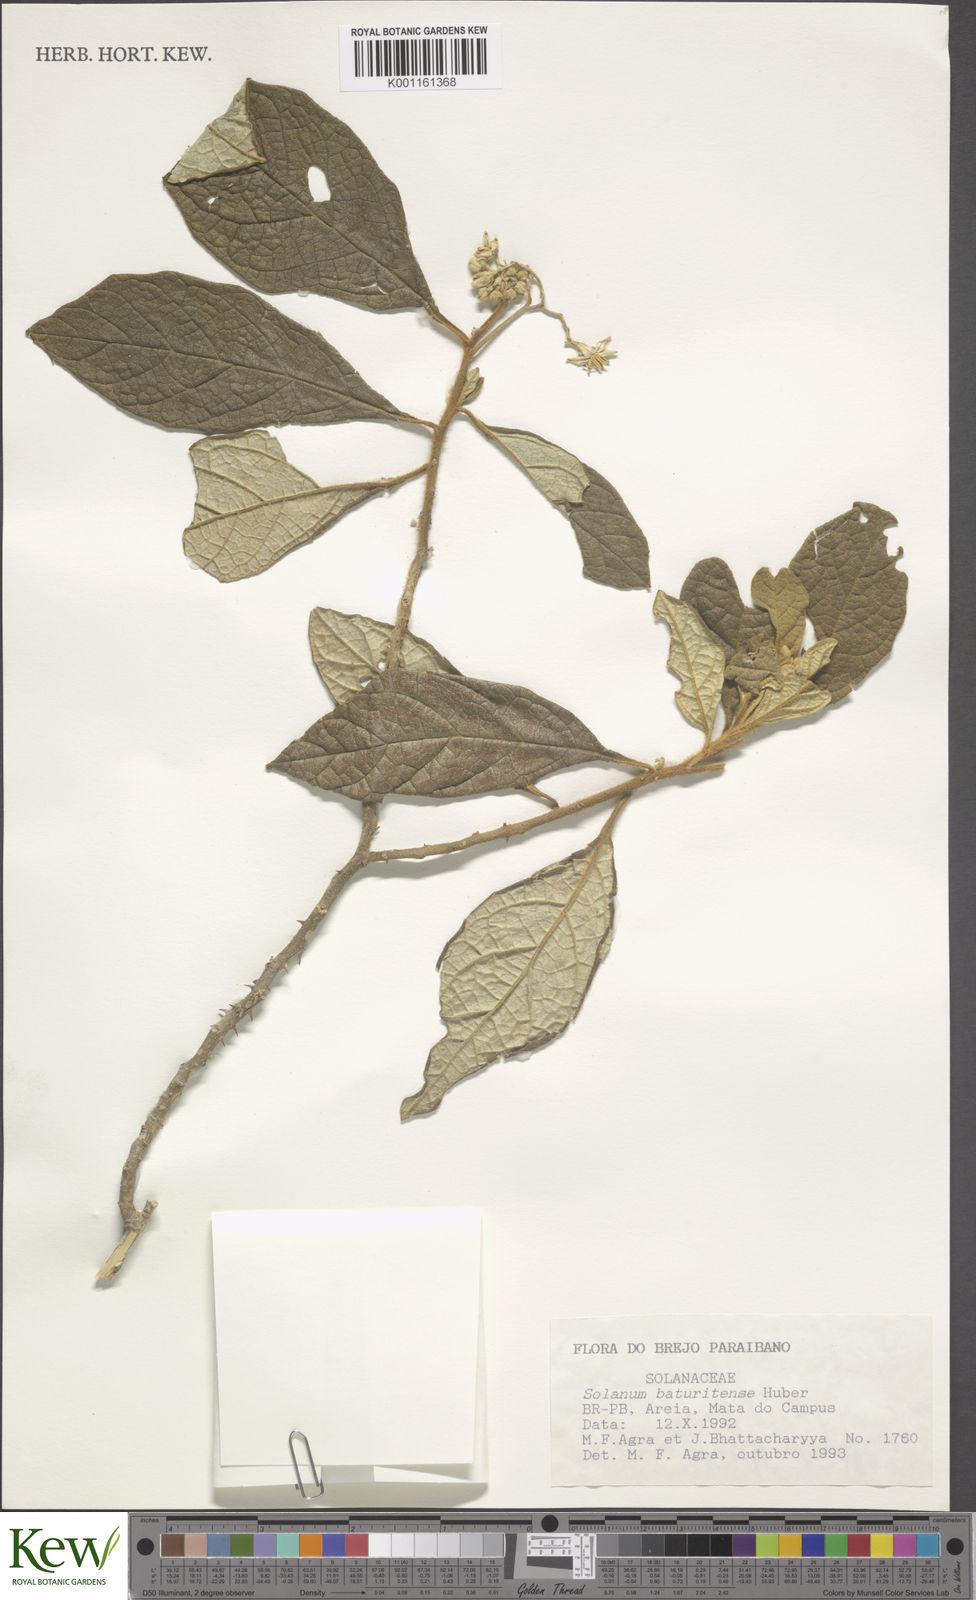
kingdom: Plantae
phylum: Tracheophyta
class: Magnoliopsida
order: Solanales
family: Solanaceae
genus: Solanum
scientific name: Solanum rhytidoandrum
